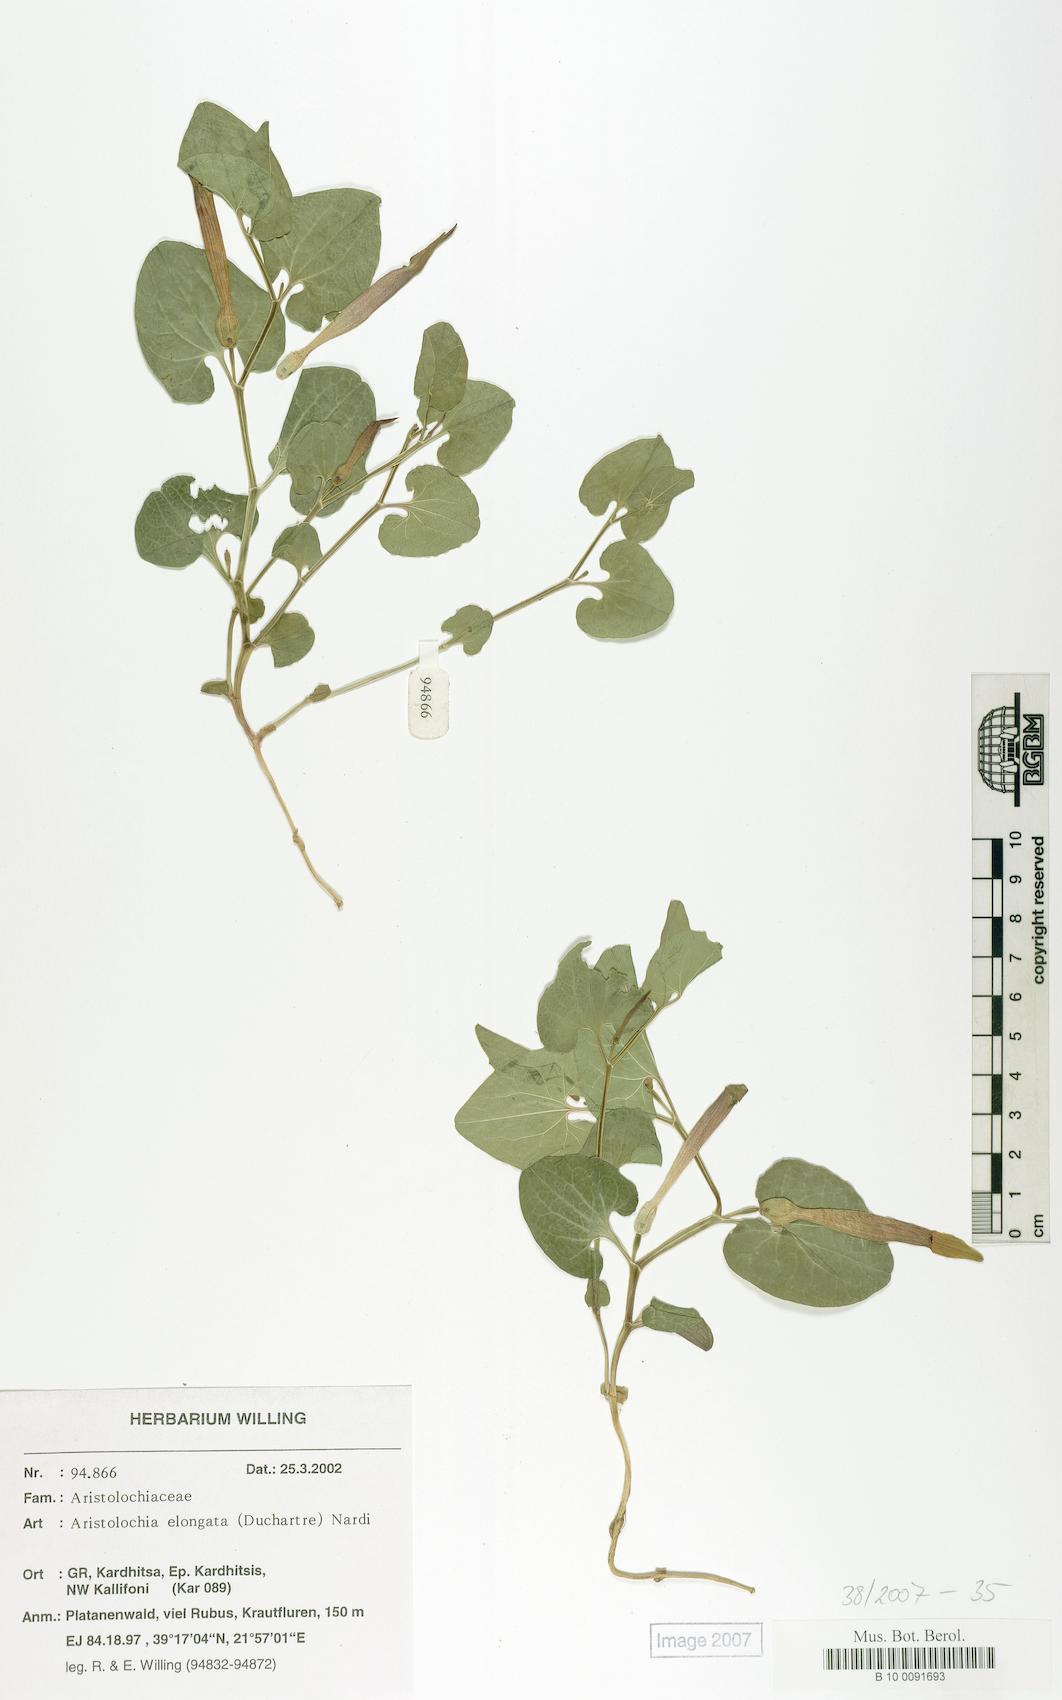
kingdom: Plantae
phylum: Tracheophyta
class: Magnoliopsida
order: Piperales
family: Aristolochiaceae
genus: Aristolochia
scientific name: Aristolochia nardiana
